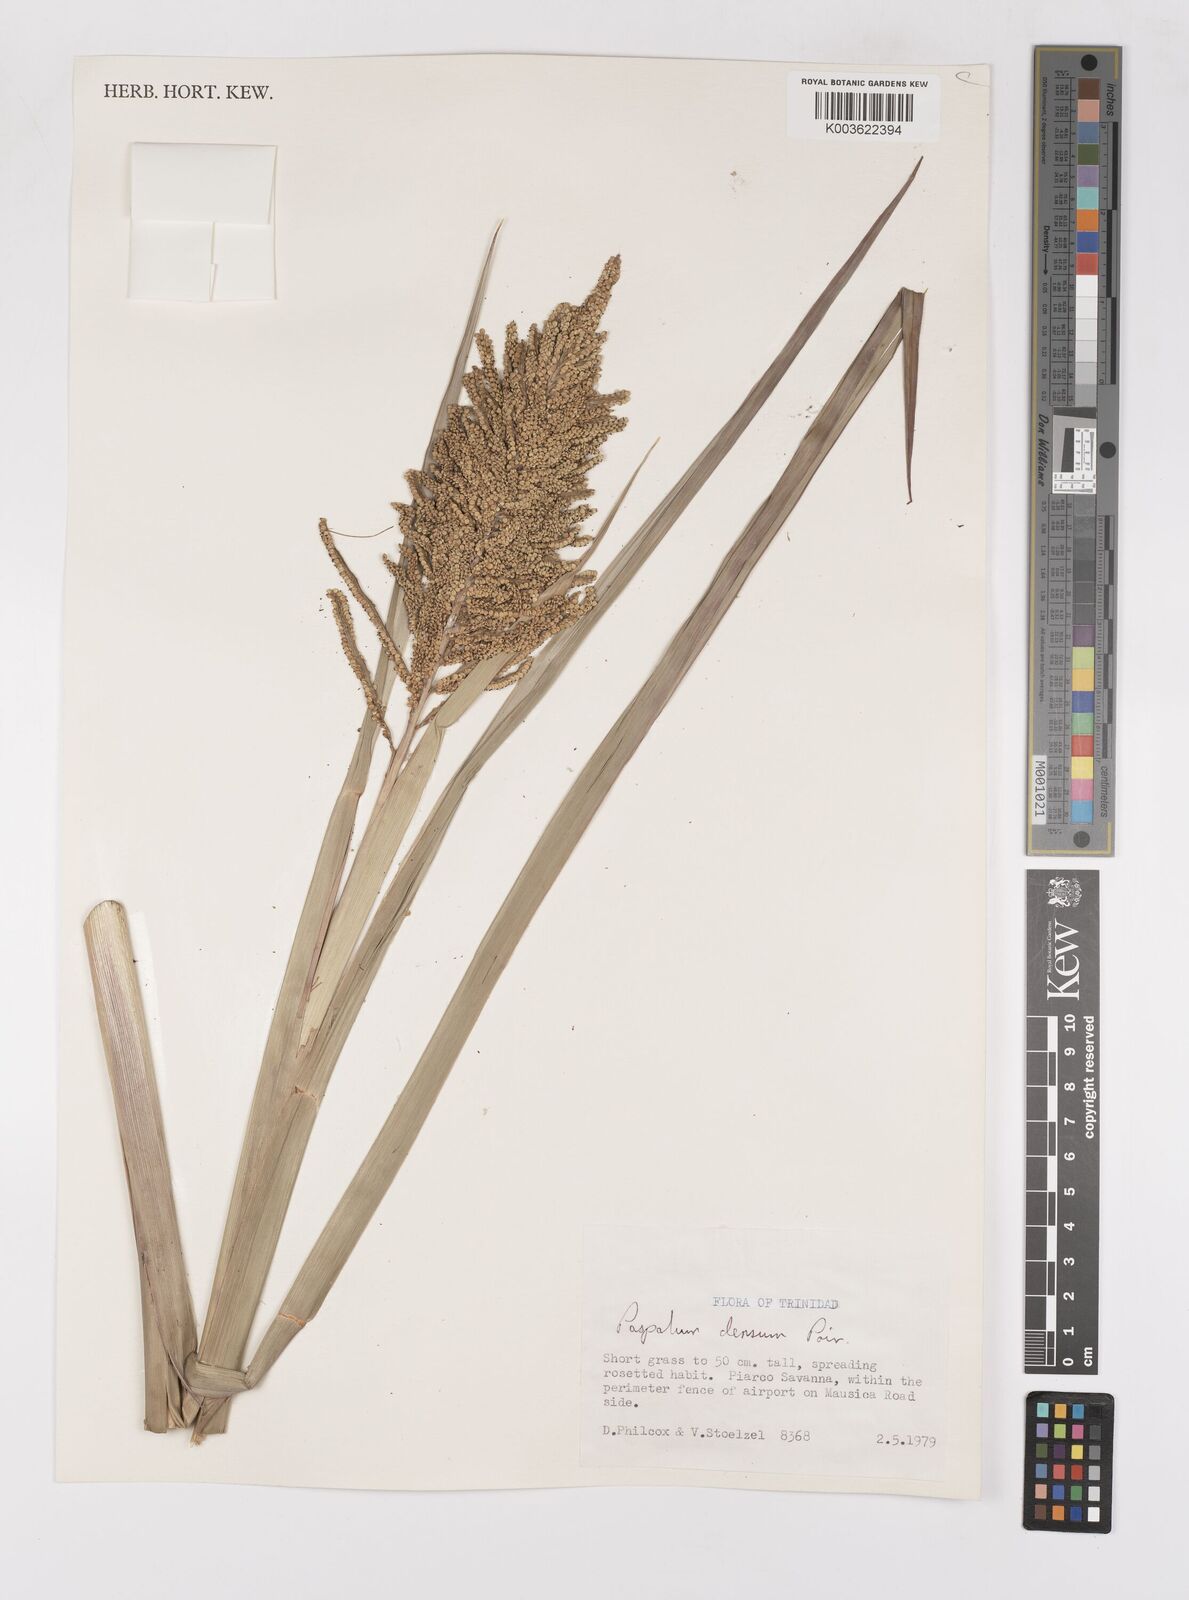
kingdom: Plantae
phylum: Tracheophyta
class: Liliopsida
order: Poales
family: Poaceae
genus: Paspalum
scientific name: Paspalum densum
